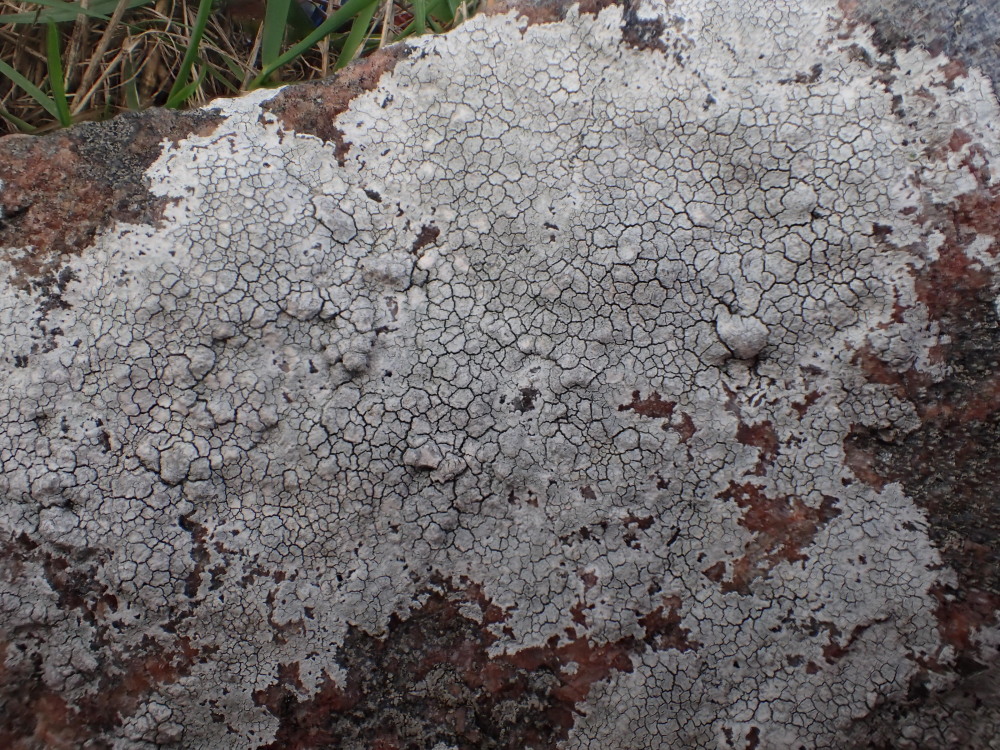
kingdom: Fungi
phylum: Ascomycota
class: Lecanoromycetes
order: Lecanorales
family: Lecanoraceae
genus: Glaucomaria
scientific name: Glaucomaria rupicola
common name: stengærde-kantskivelav
